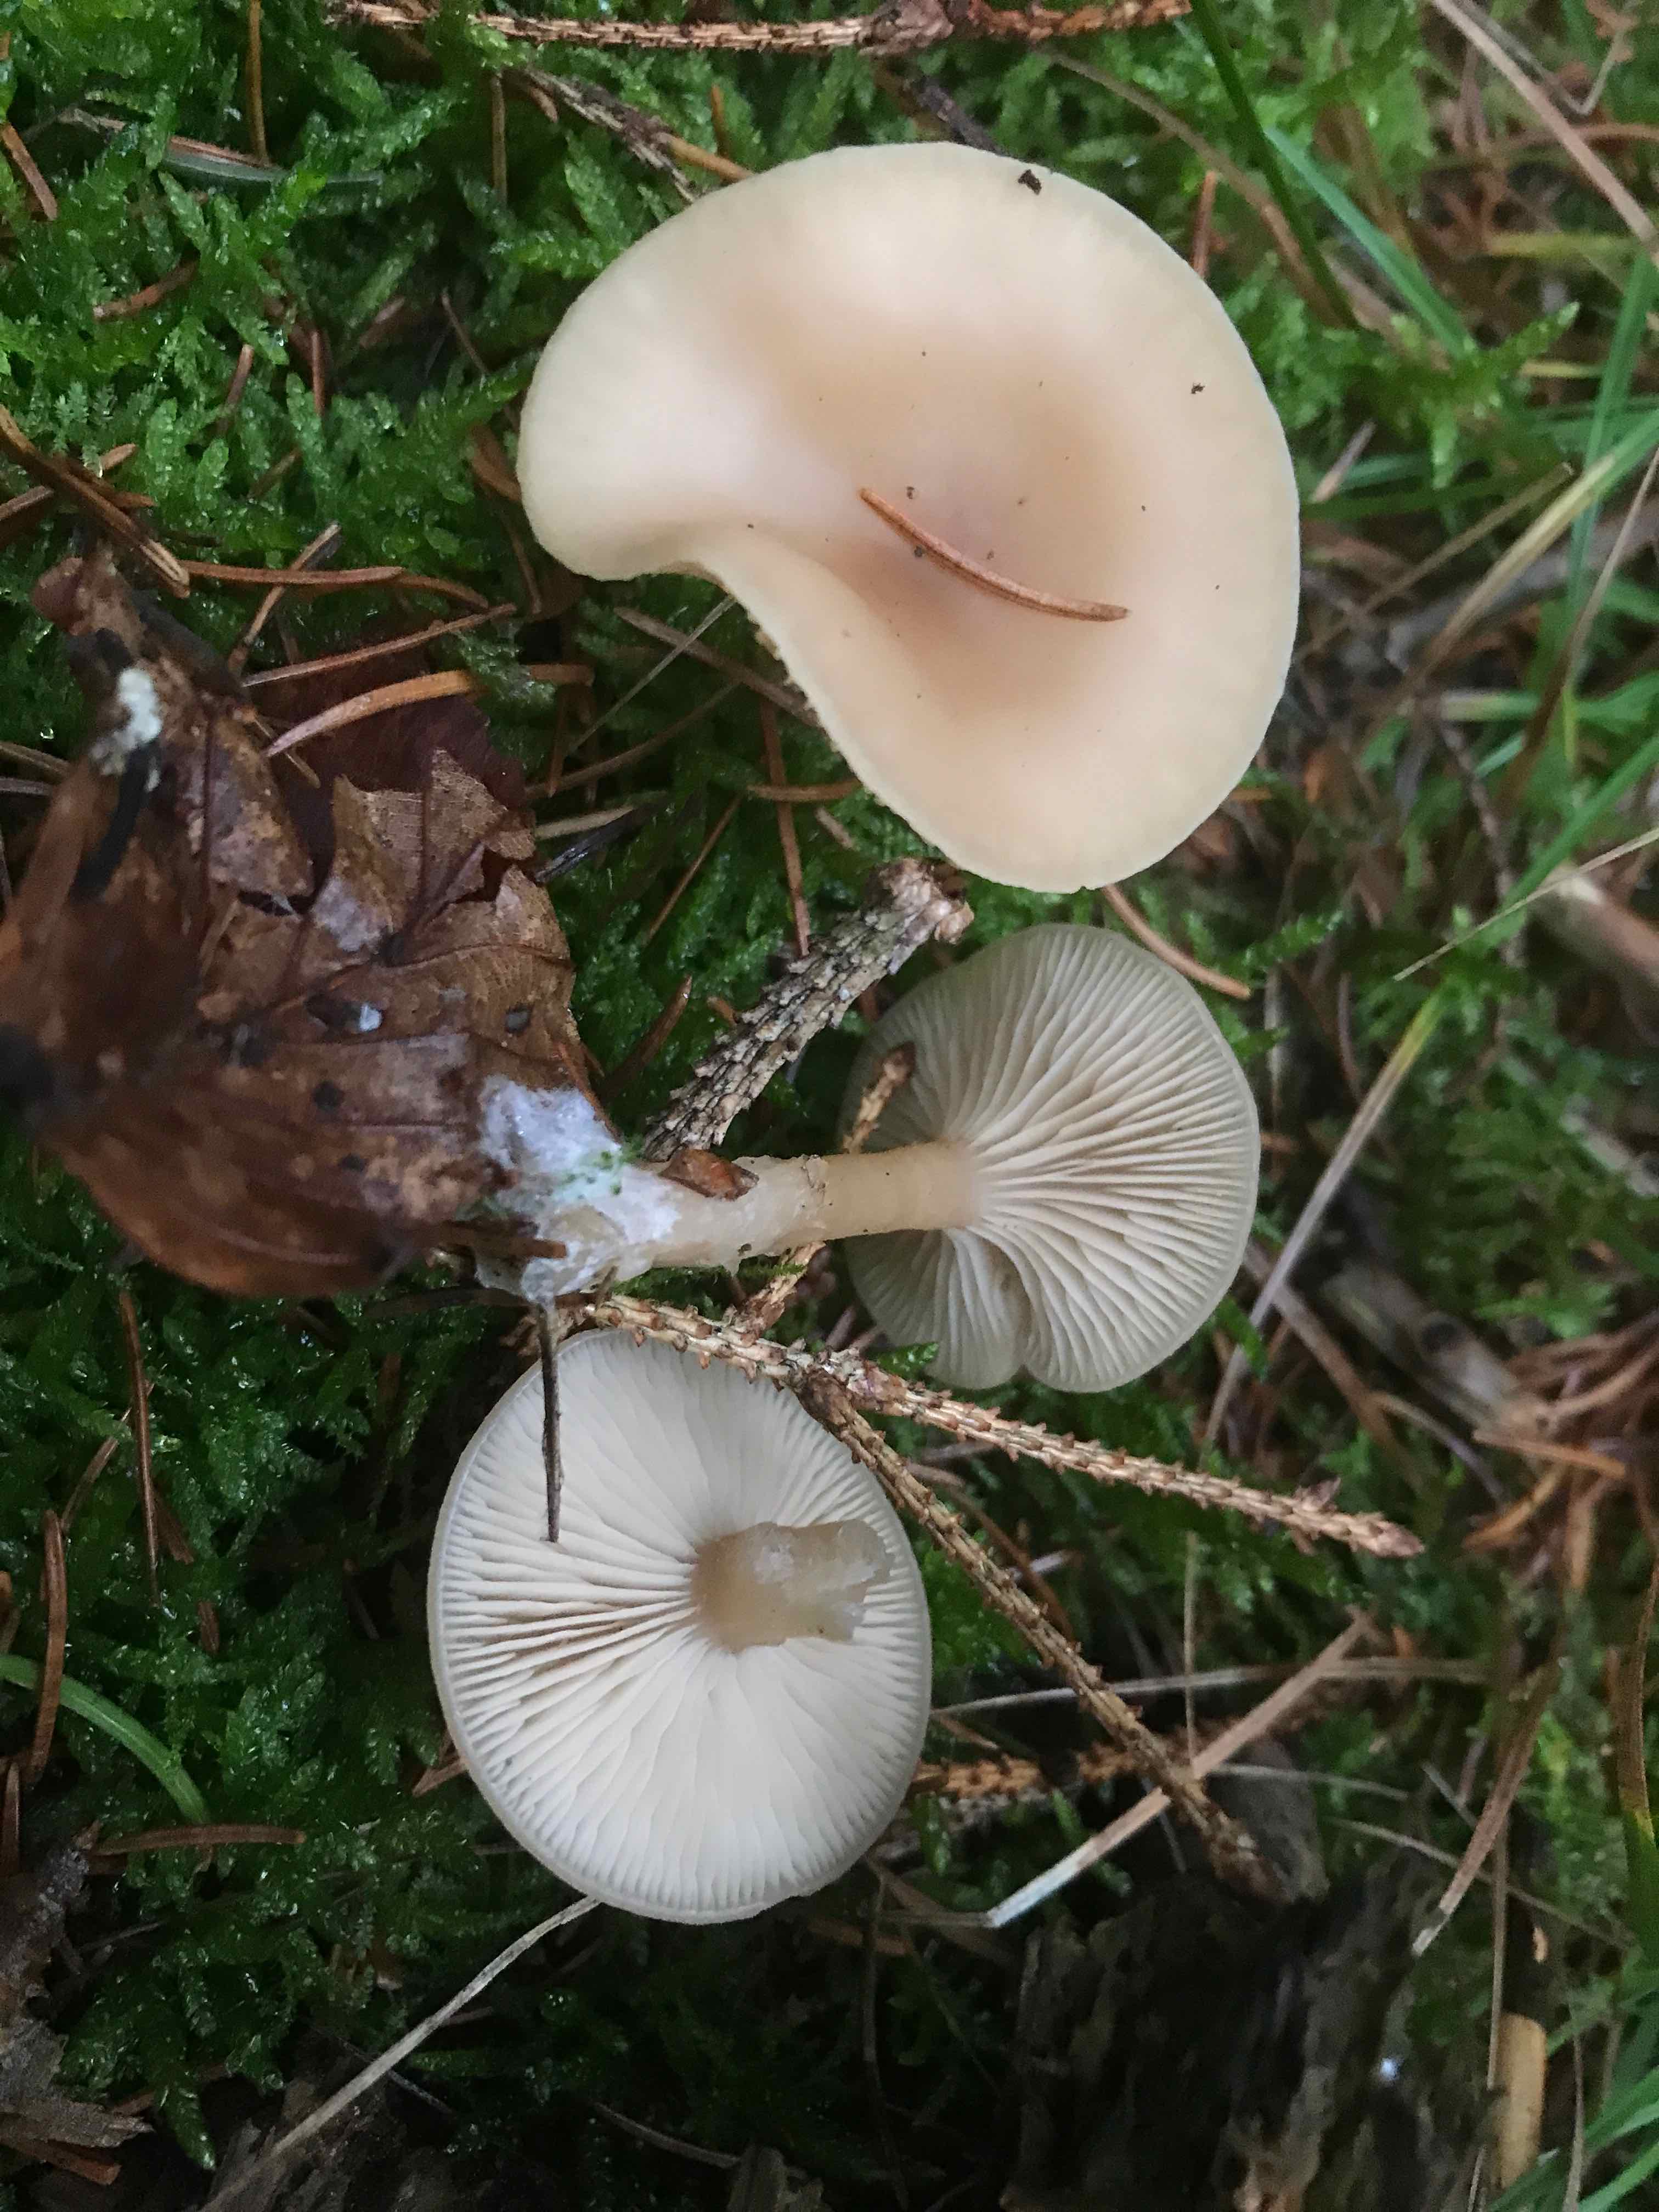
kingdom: Fungi
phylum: Basidiomycota
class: Agaricomycetes
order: Agaricales
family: Tricholomataceae
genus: Clitocybe
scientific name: Clitocybe fragrans
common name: vellugtende tragthat
